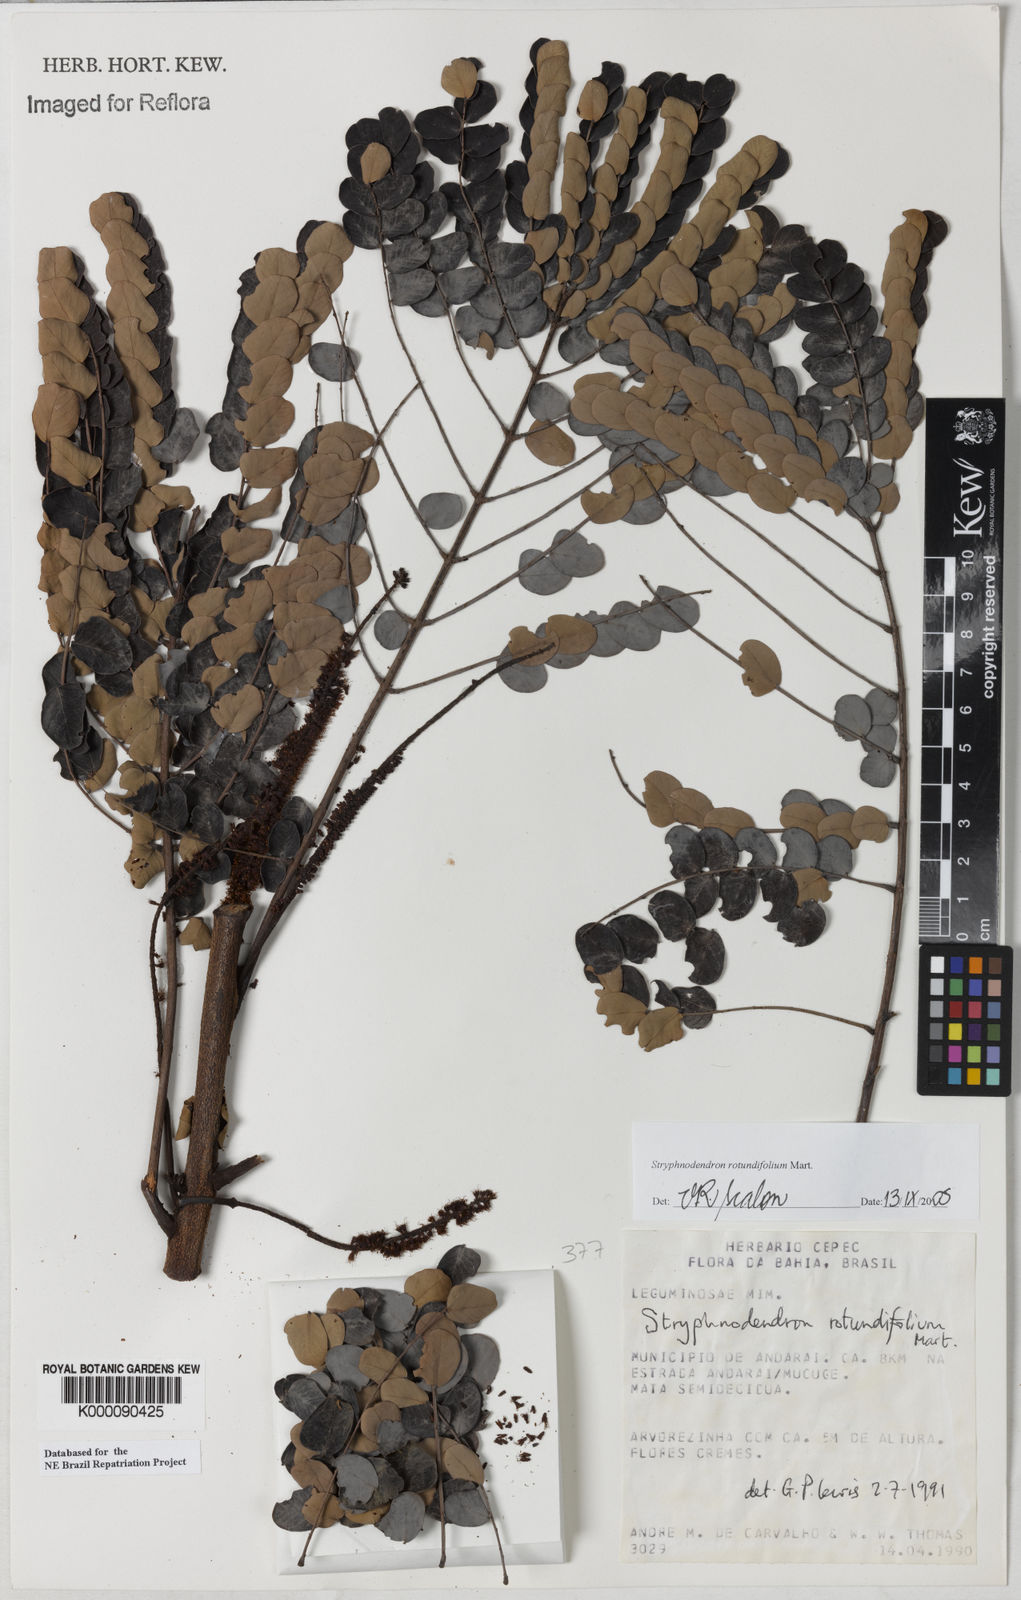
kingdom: Plantae
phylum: Tracheophyta
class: Magnoliopsida
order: Fabales
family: Fabaceae
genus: Stryphnodendron
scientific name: Stryphnodendron rotundifolium
